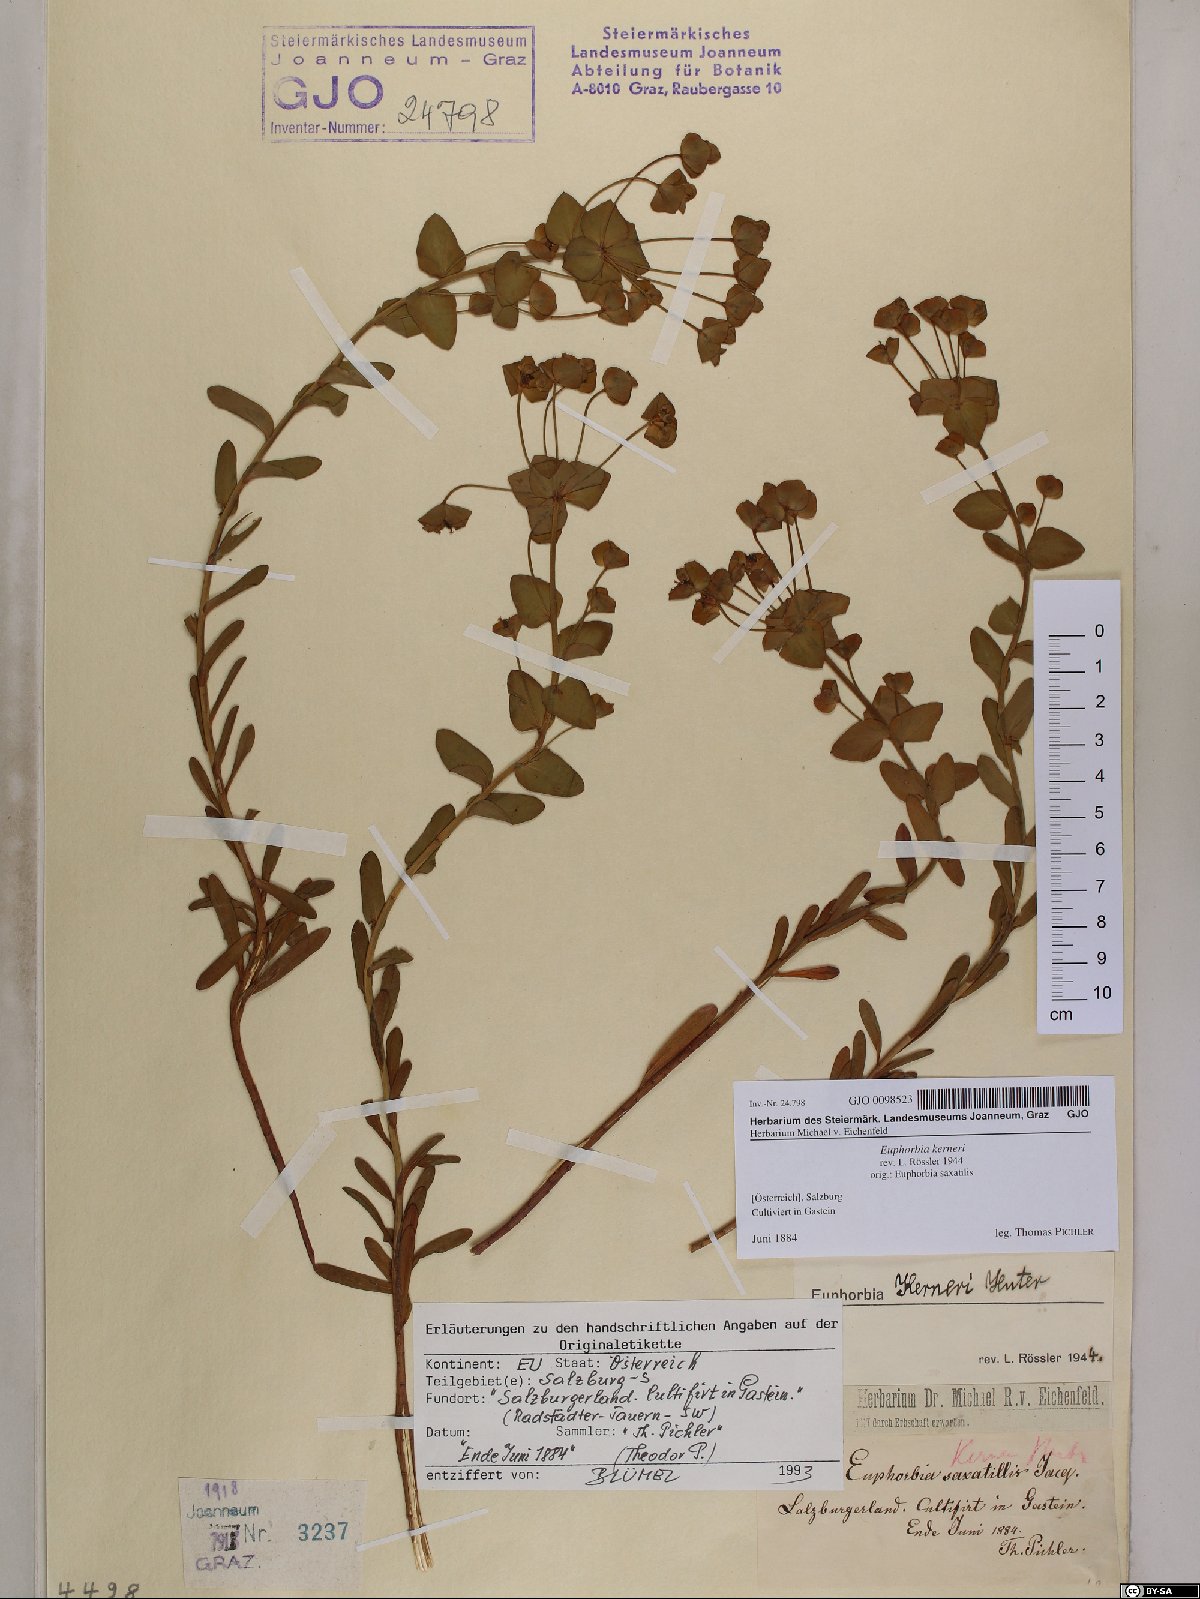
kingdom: Plantae
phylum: Tracheophyta
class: Magnoliopsida
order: Malpighiales
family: Euphorbiaceae
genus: Euphorbia
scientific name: Euphorbia kerneri
